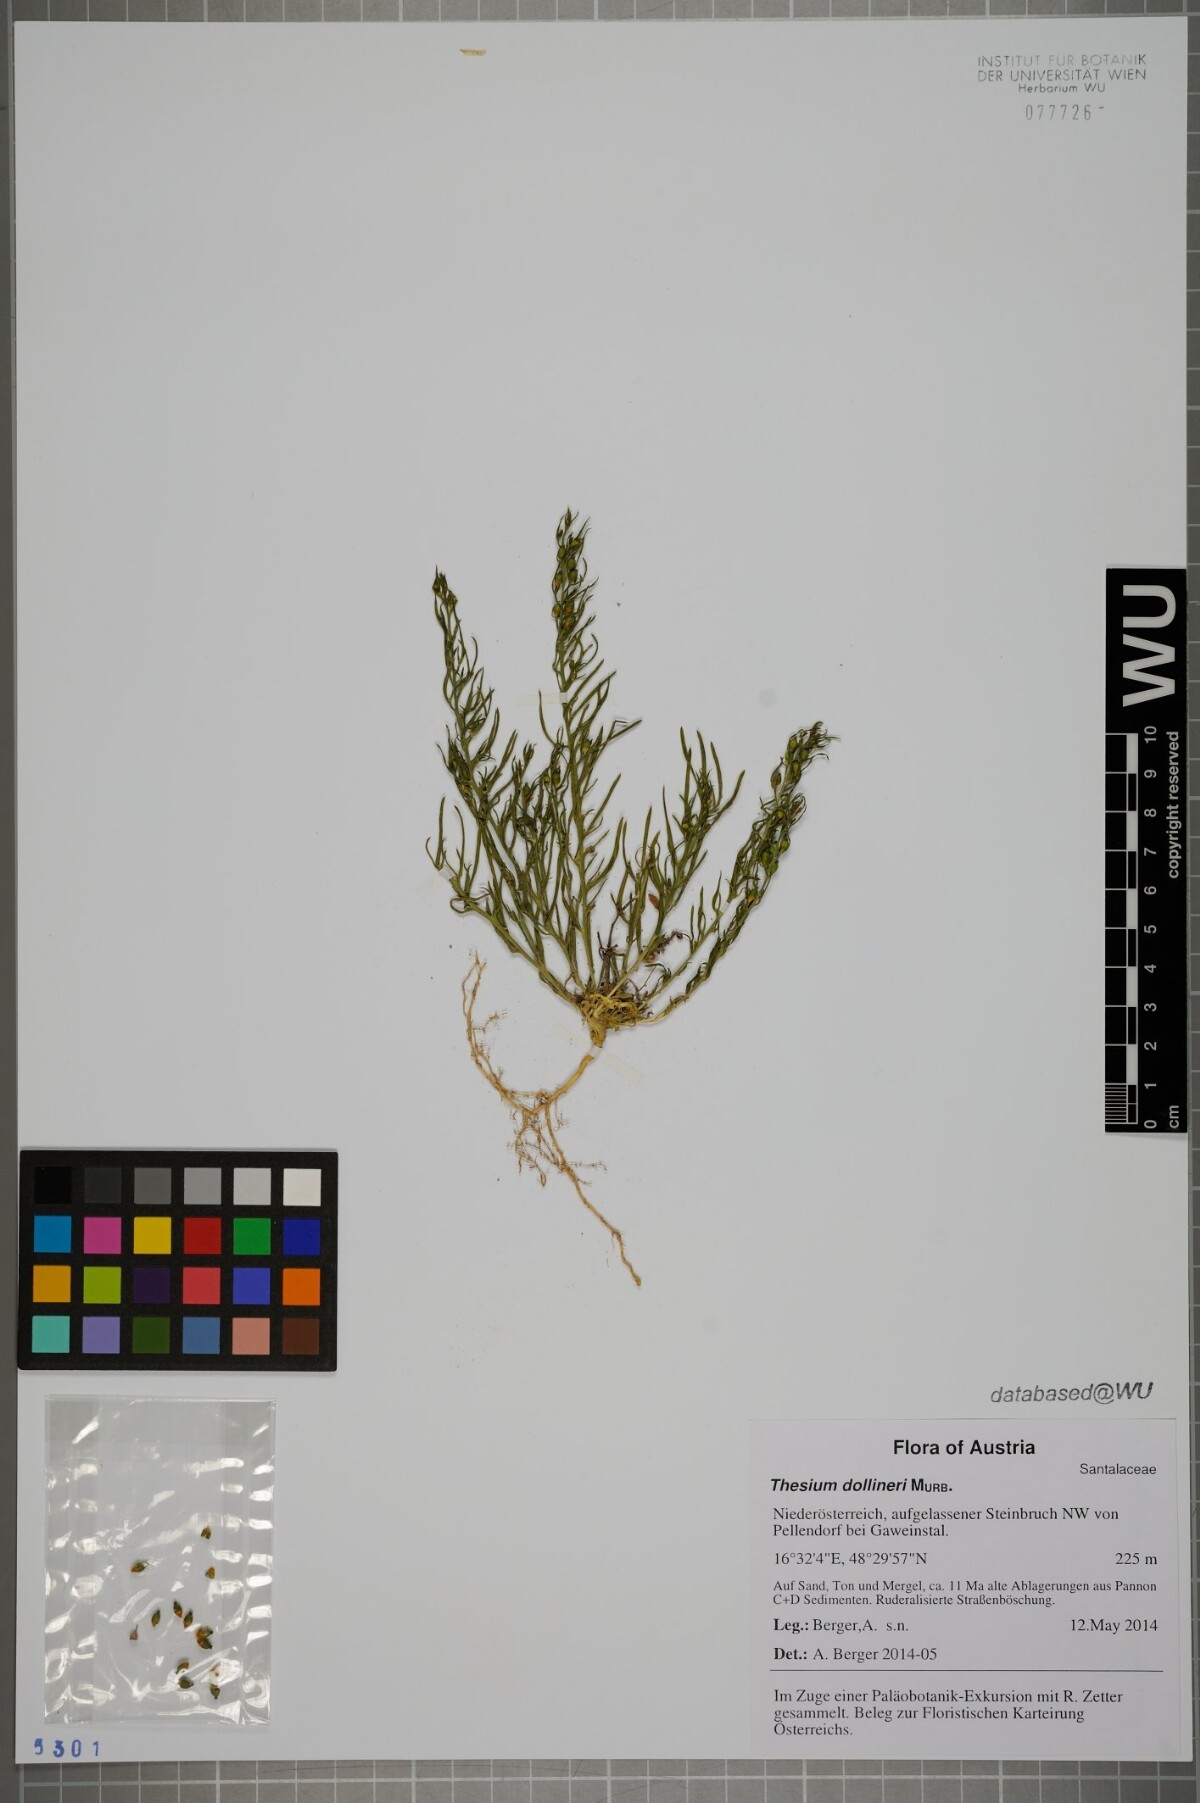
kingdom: Plantae
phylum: Tracheophyta
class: Magnoliopsida
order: Santalales
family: Thesiaceae
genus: Thesium
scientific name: Thesium dollineri
